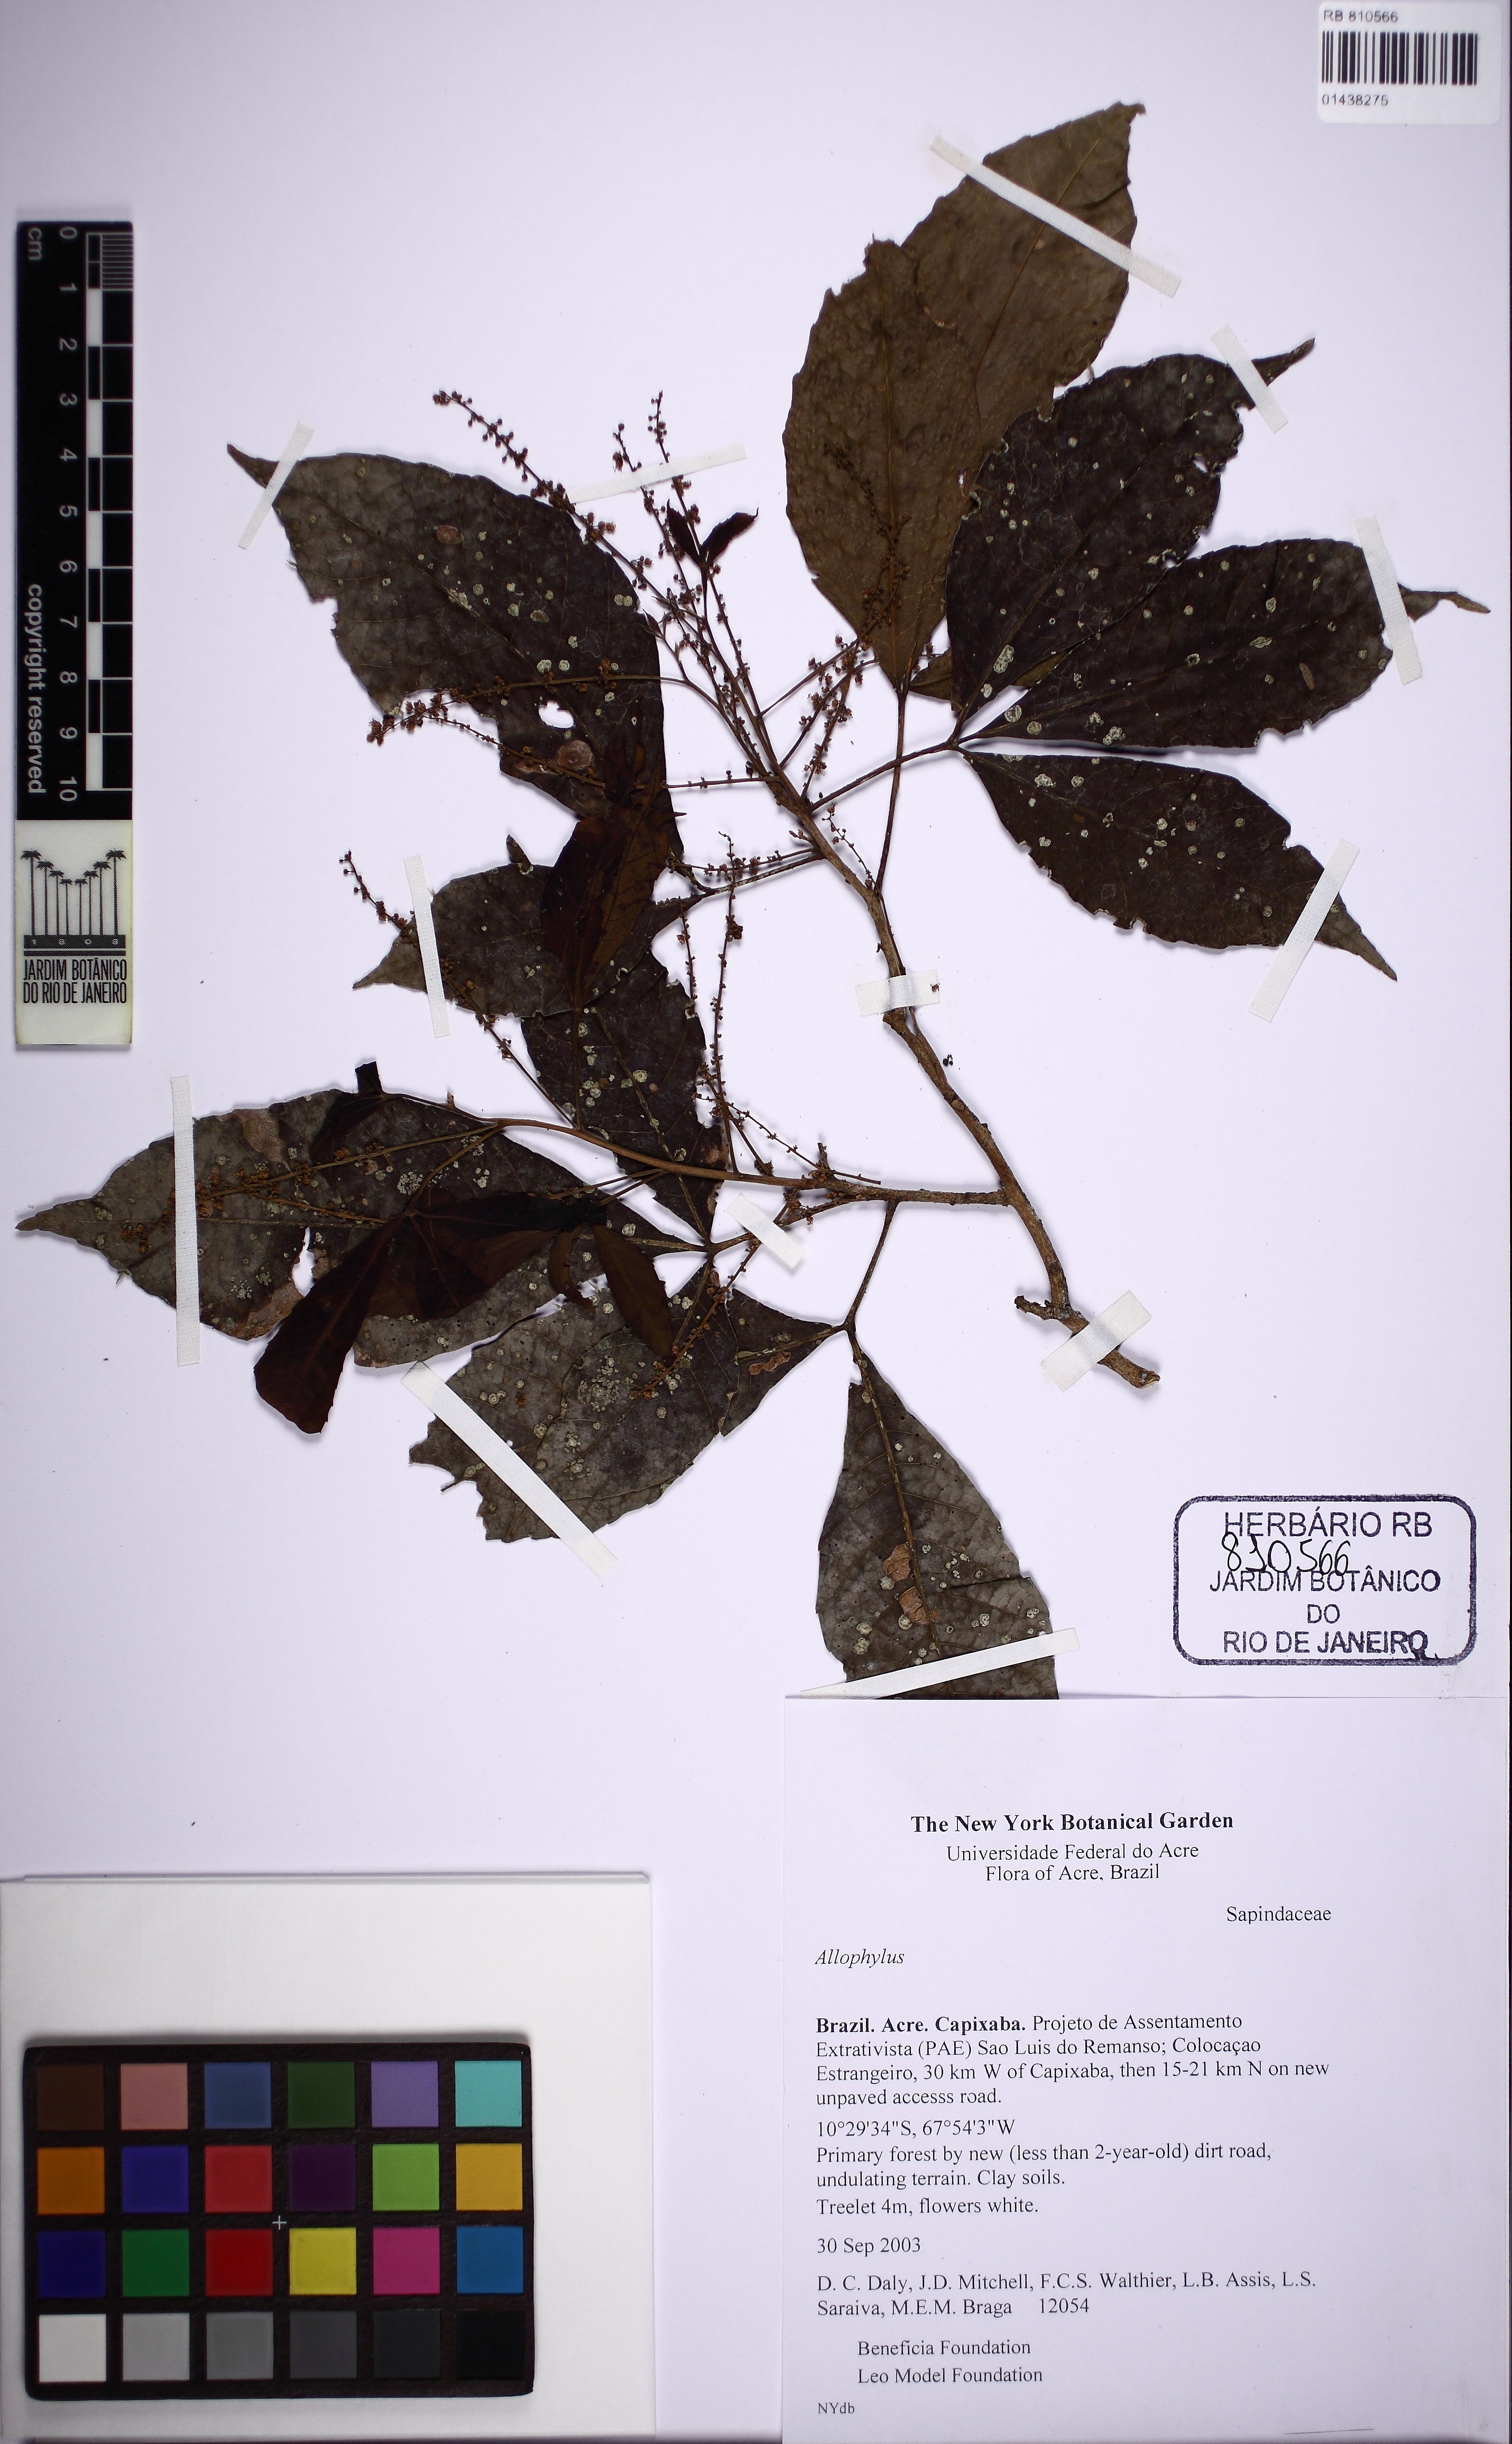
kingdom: Plantae
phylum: Tracheophyta
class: Magnoliopsida
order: Sapindales
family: Sapindaceae
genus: Allophylus
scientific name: Allophylus
